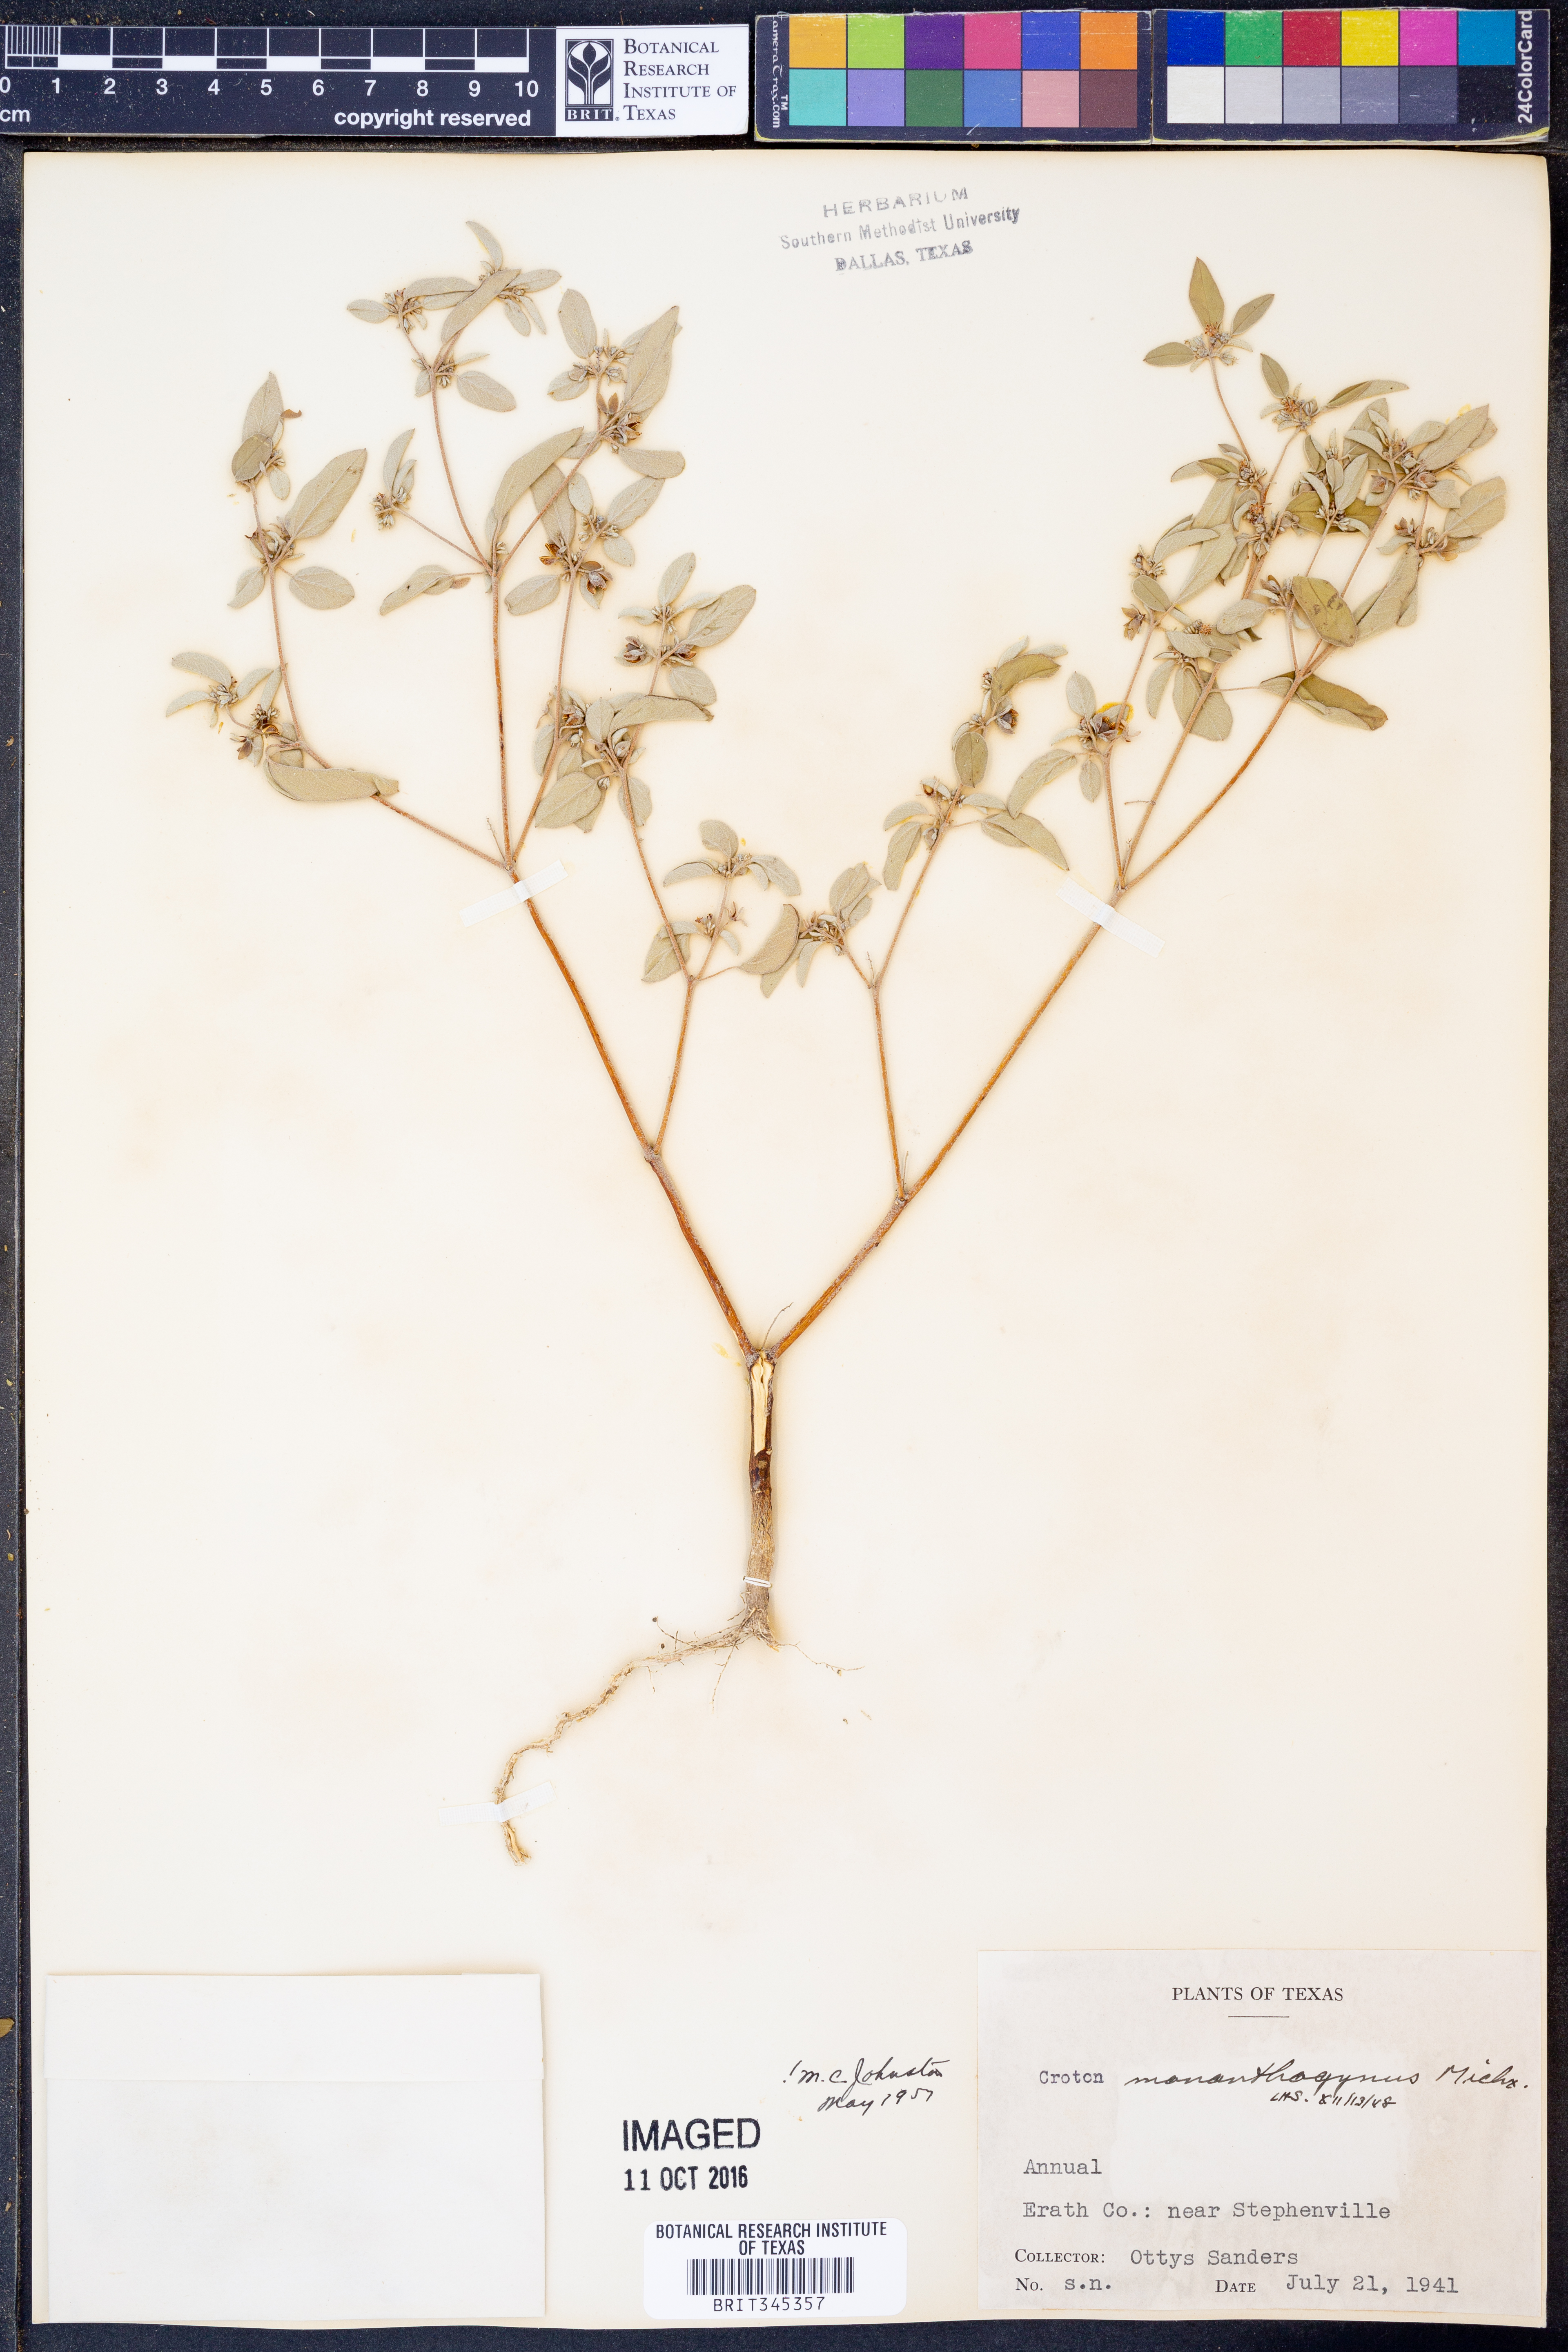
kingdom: Plantae
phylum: Tracheophyta
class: Magnoliopsida
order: Malpighiales
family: Euphorbiaceae
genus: Croton
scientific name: Croton monanthogynus
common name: One-seed croton
